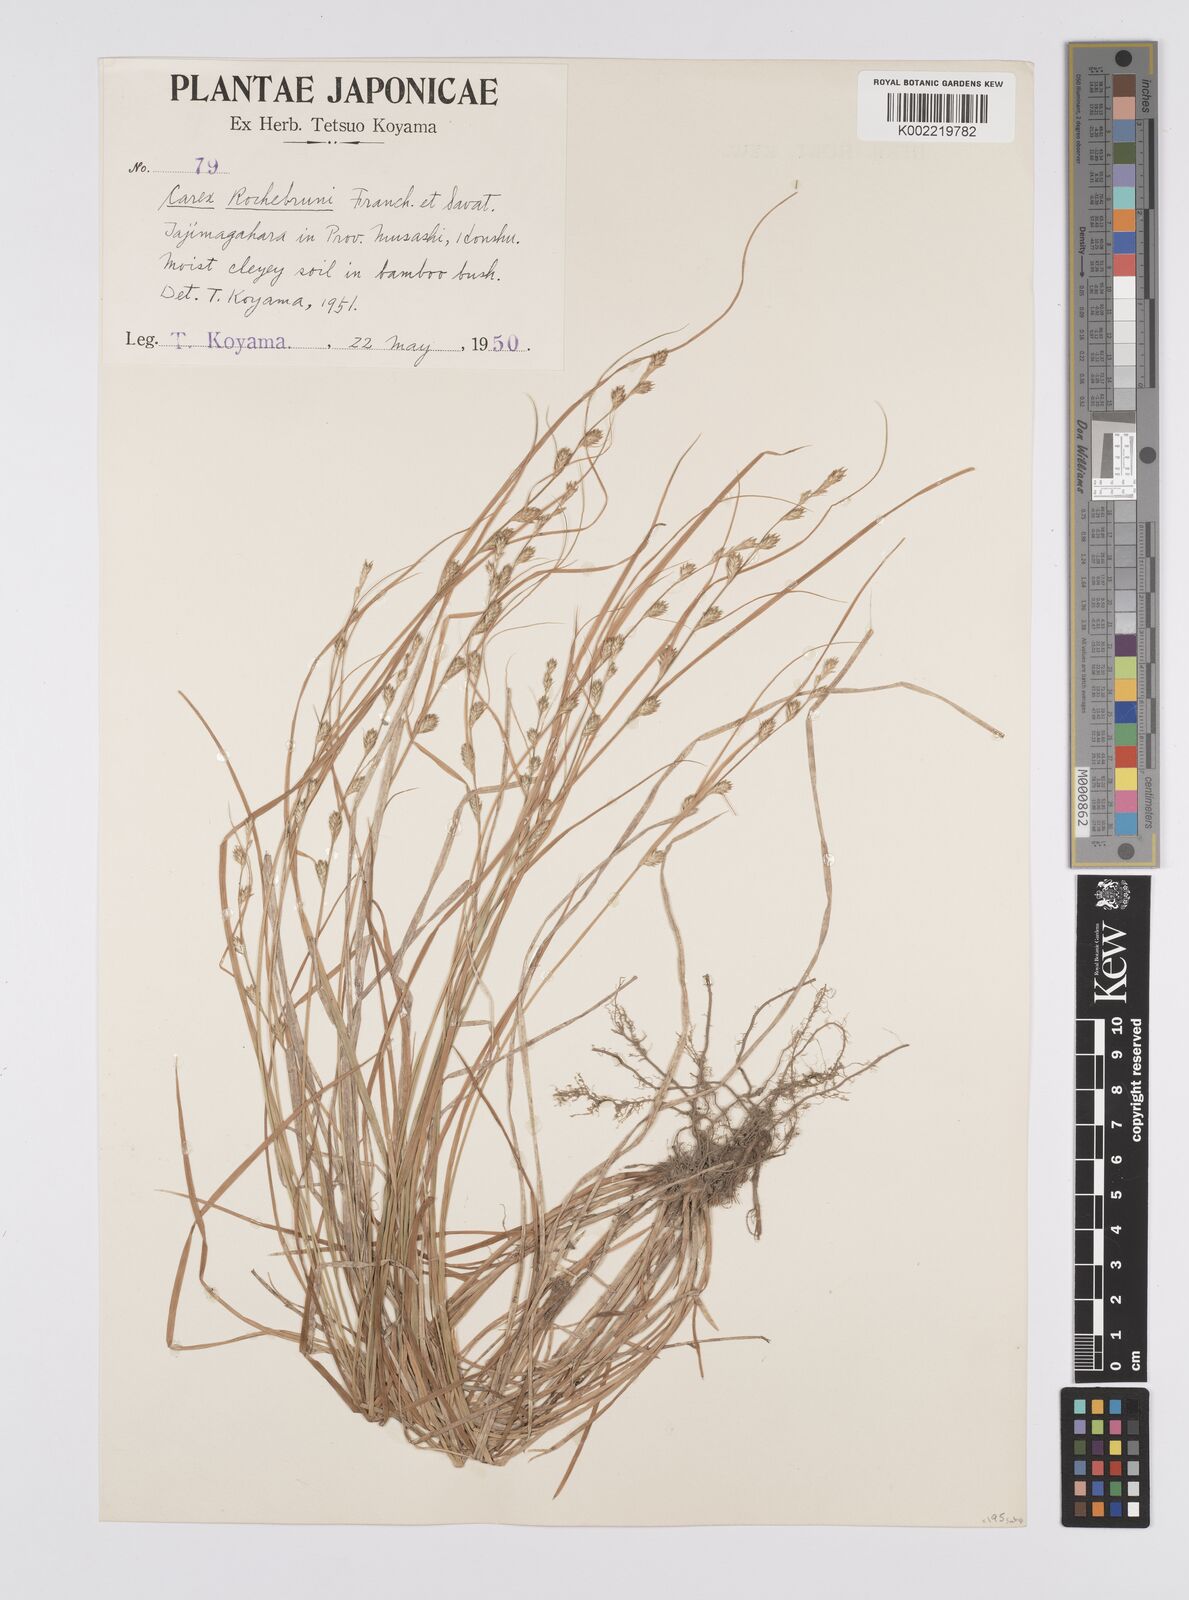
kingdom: Plantae
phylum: Tracheophyta
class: Liliopsida
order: Poales
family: Cyperaceae
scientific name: Cyperaceae
